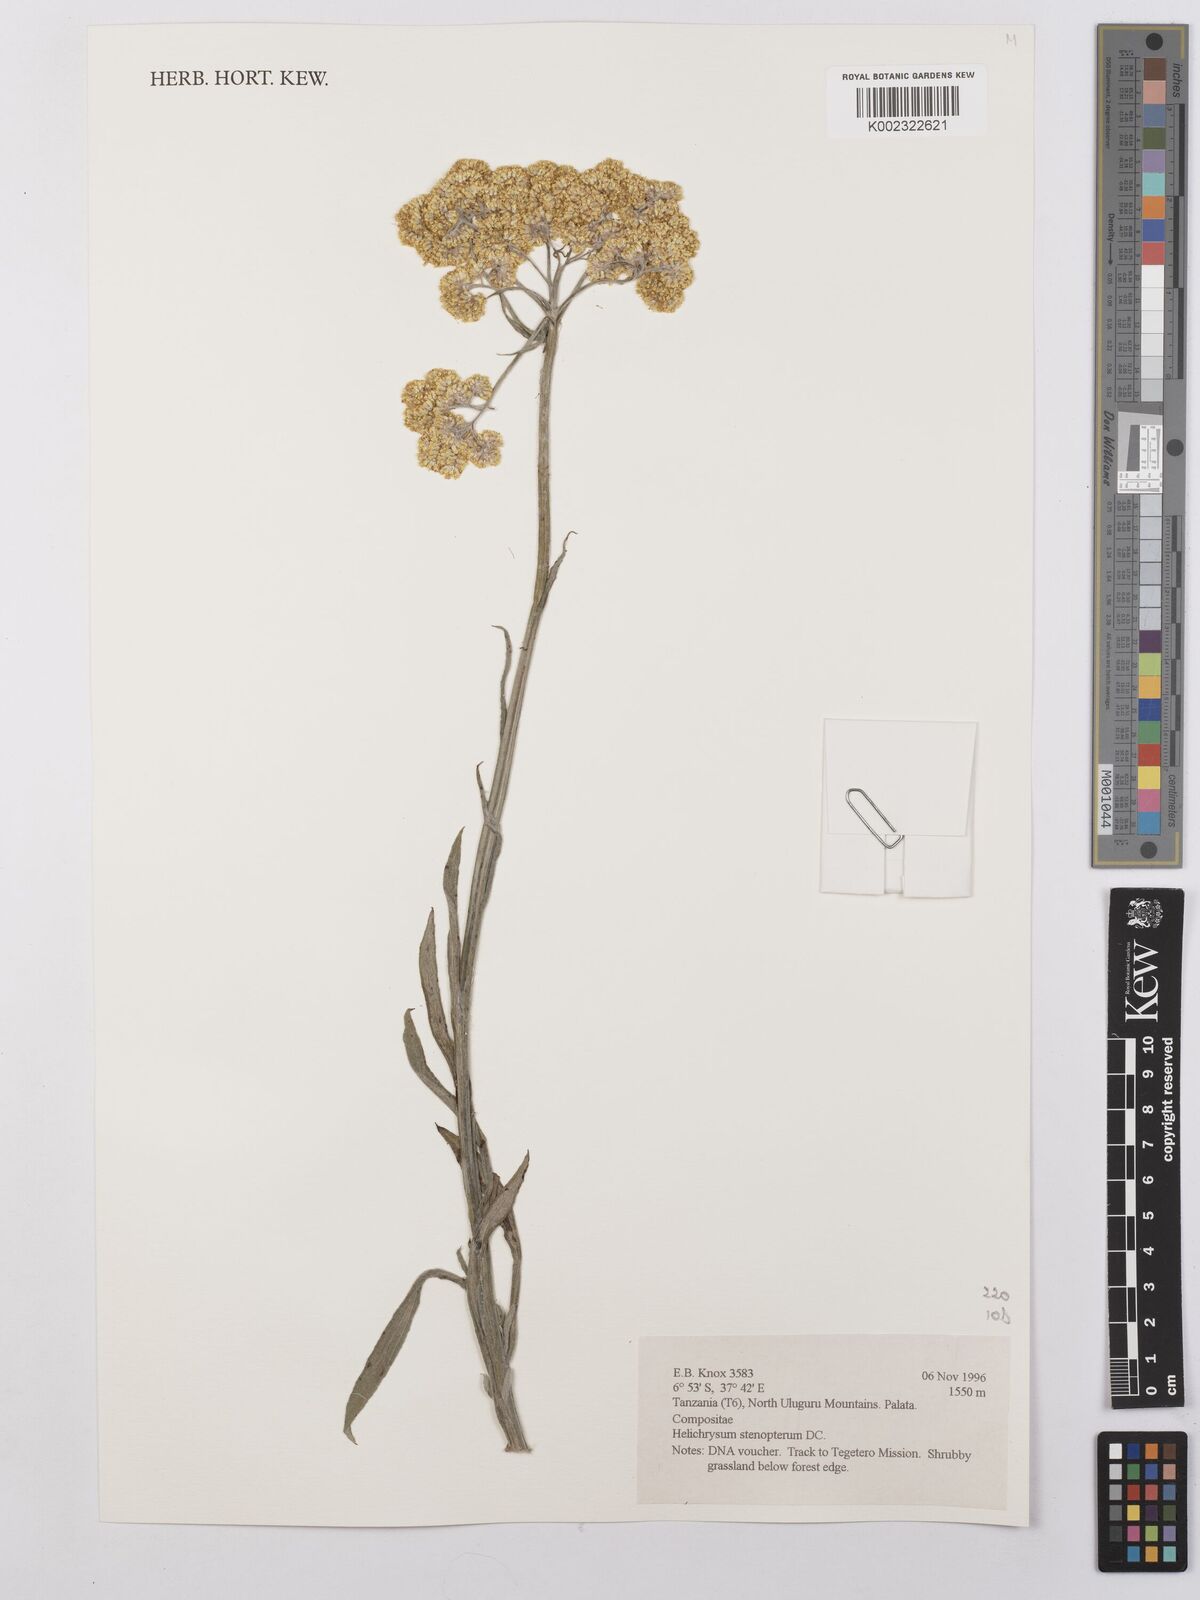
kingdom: Plantae
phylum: Tracheophyta
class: Magnoliopsida
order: Asterales
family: Asteraceae
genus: Helichrysum
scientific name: Helichrysum stenopterum
